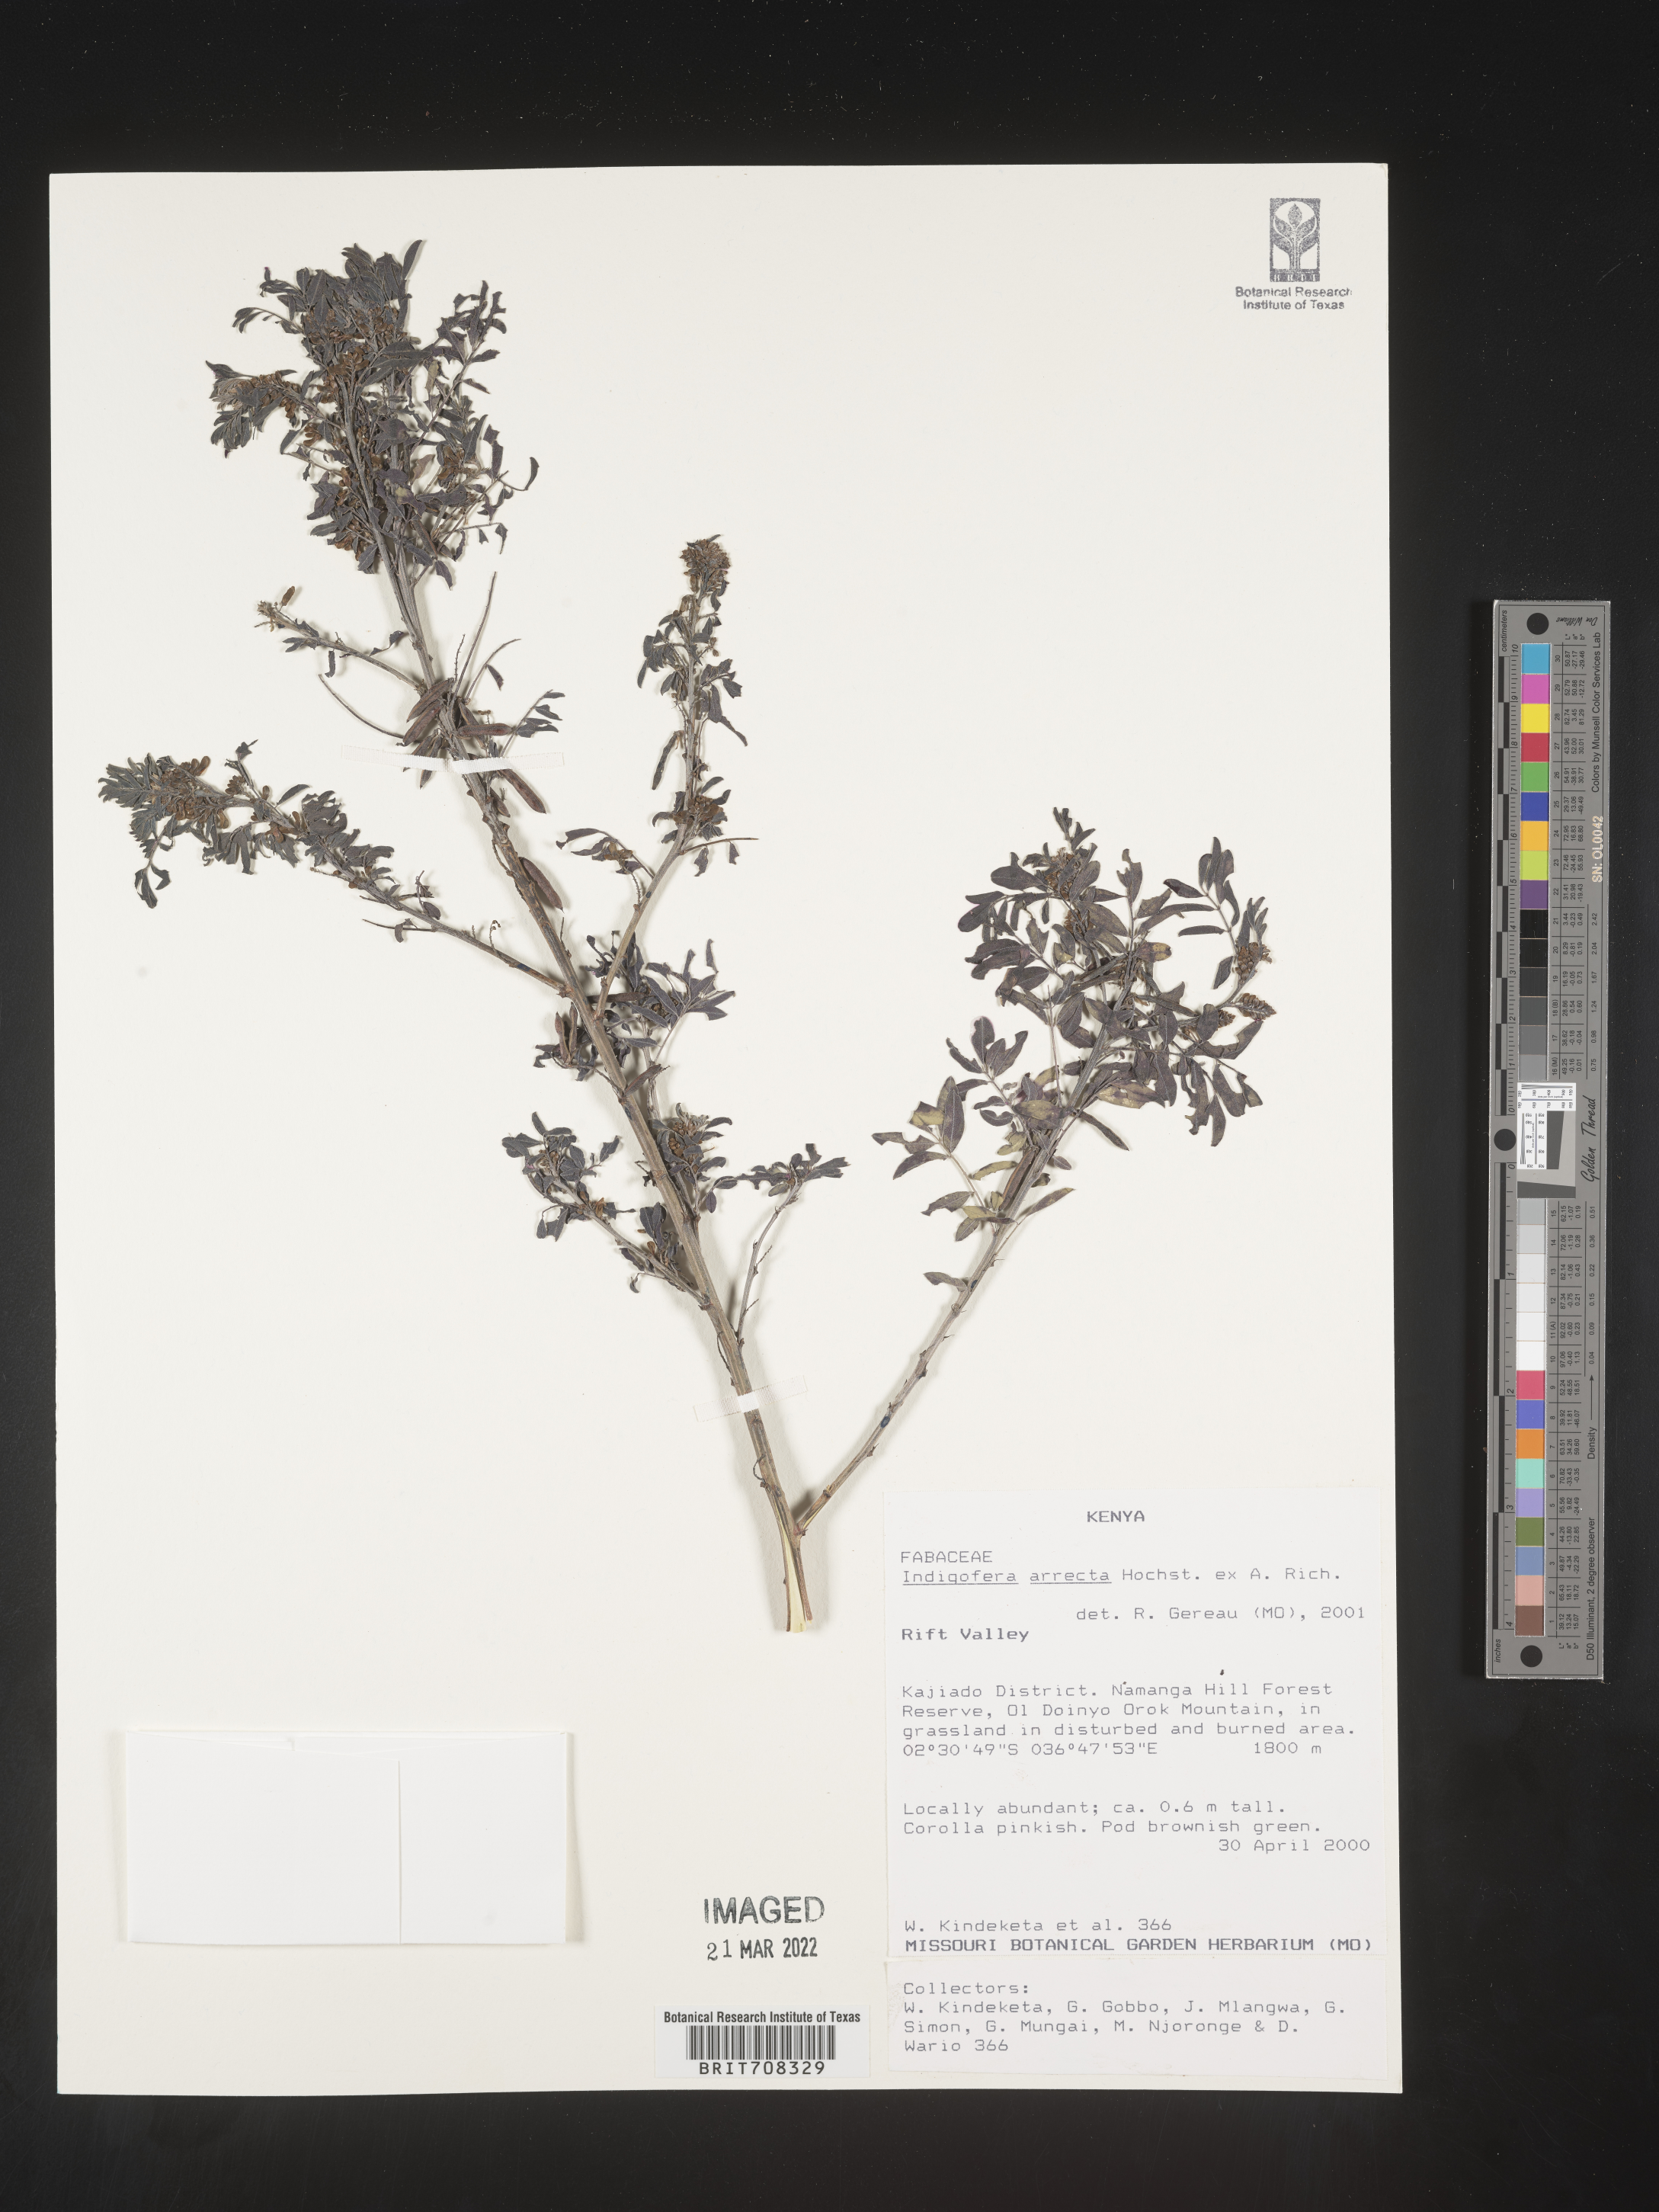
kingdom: Plantae
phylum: Tracheophyta
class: Magnoliopsida
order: Fabales
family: Fabaceae
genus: Indigofera
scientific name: Indigofera
